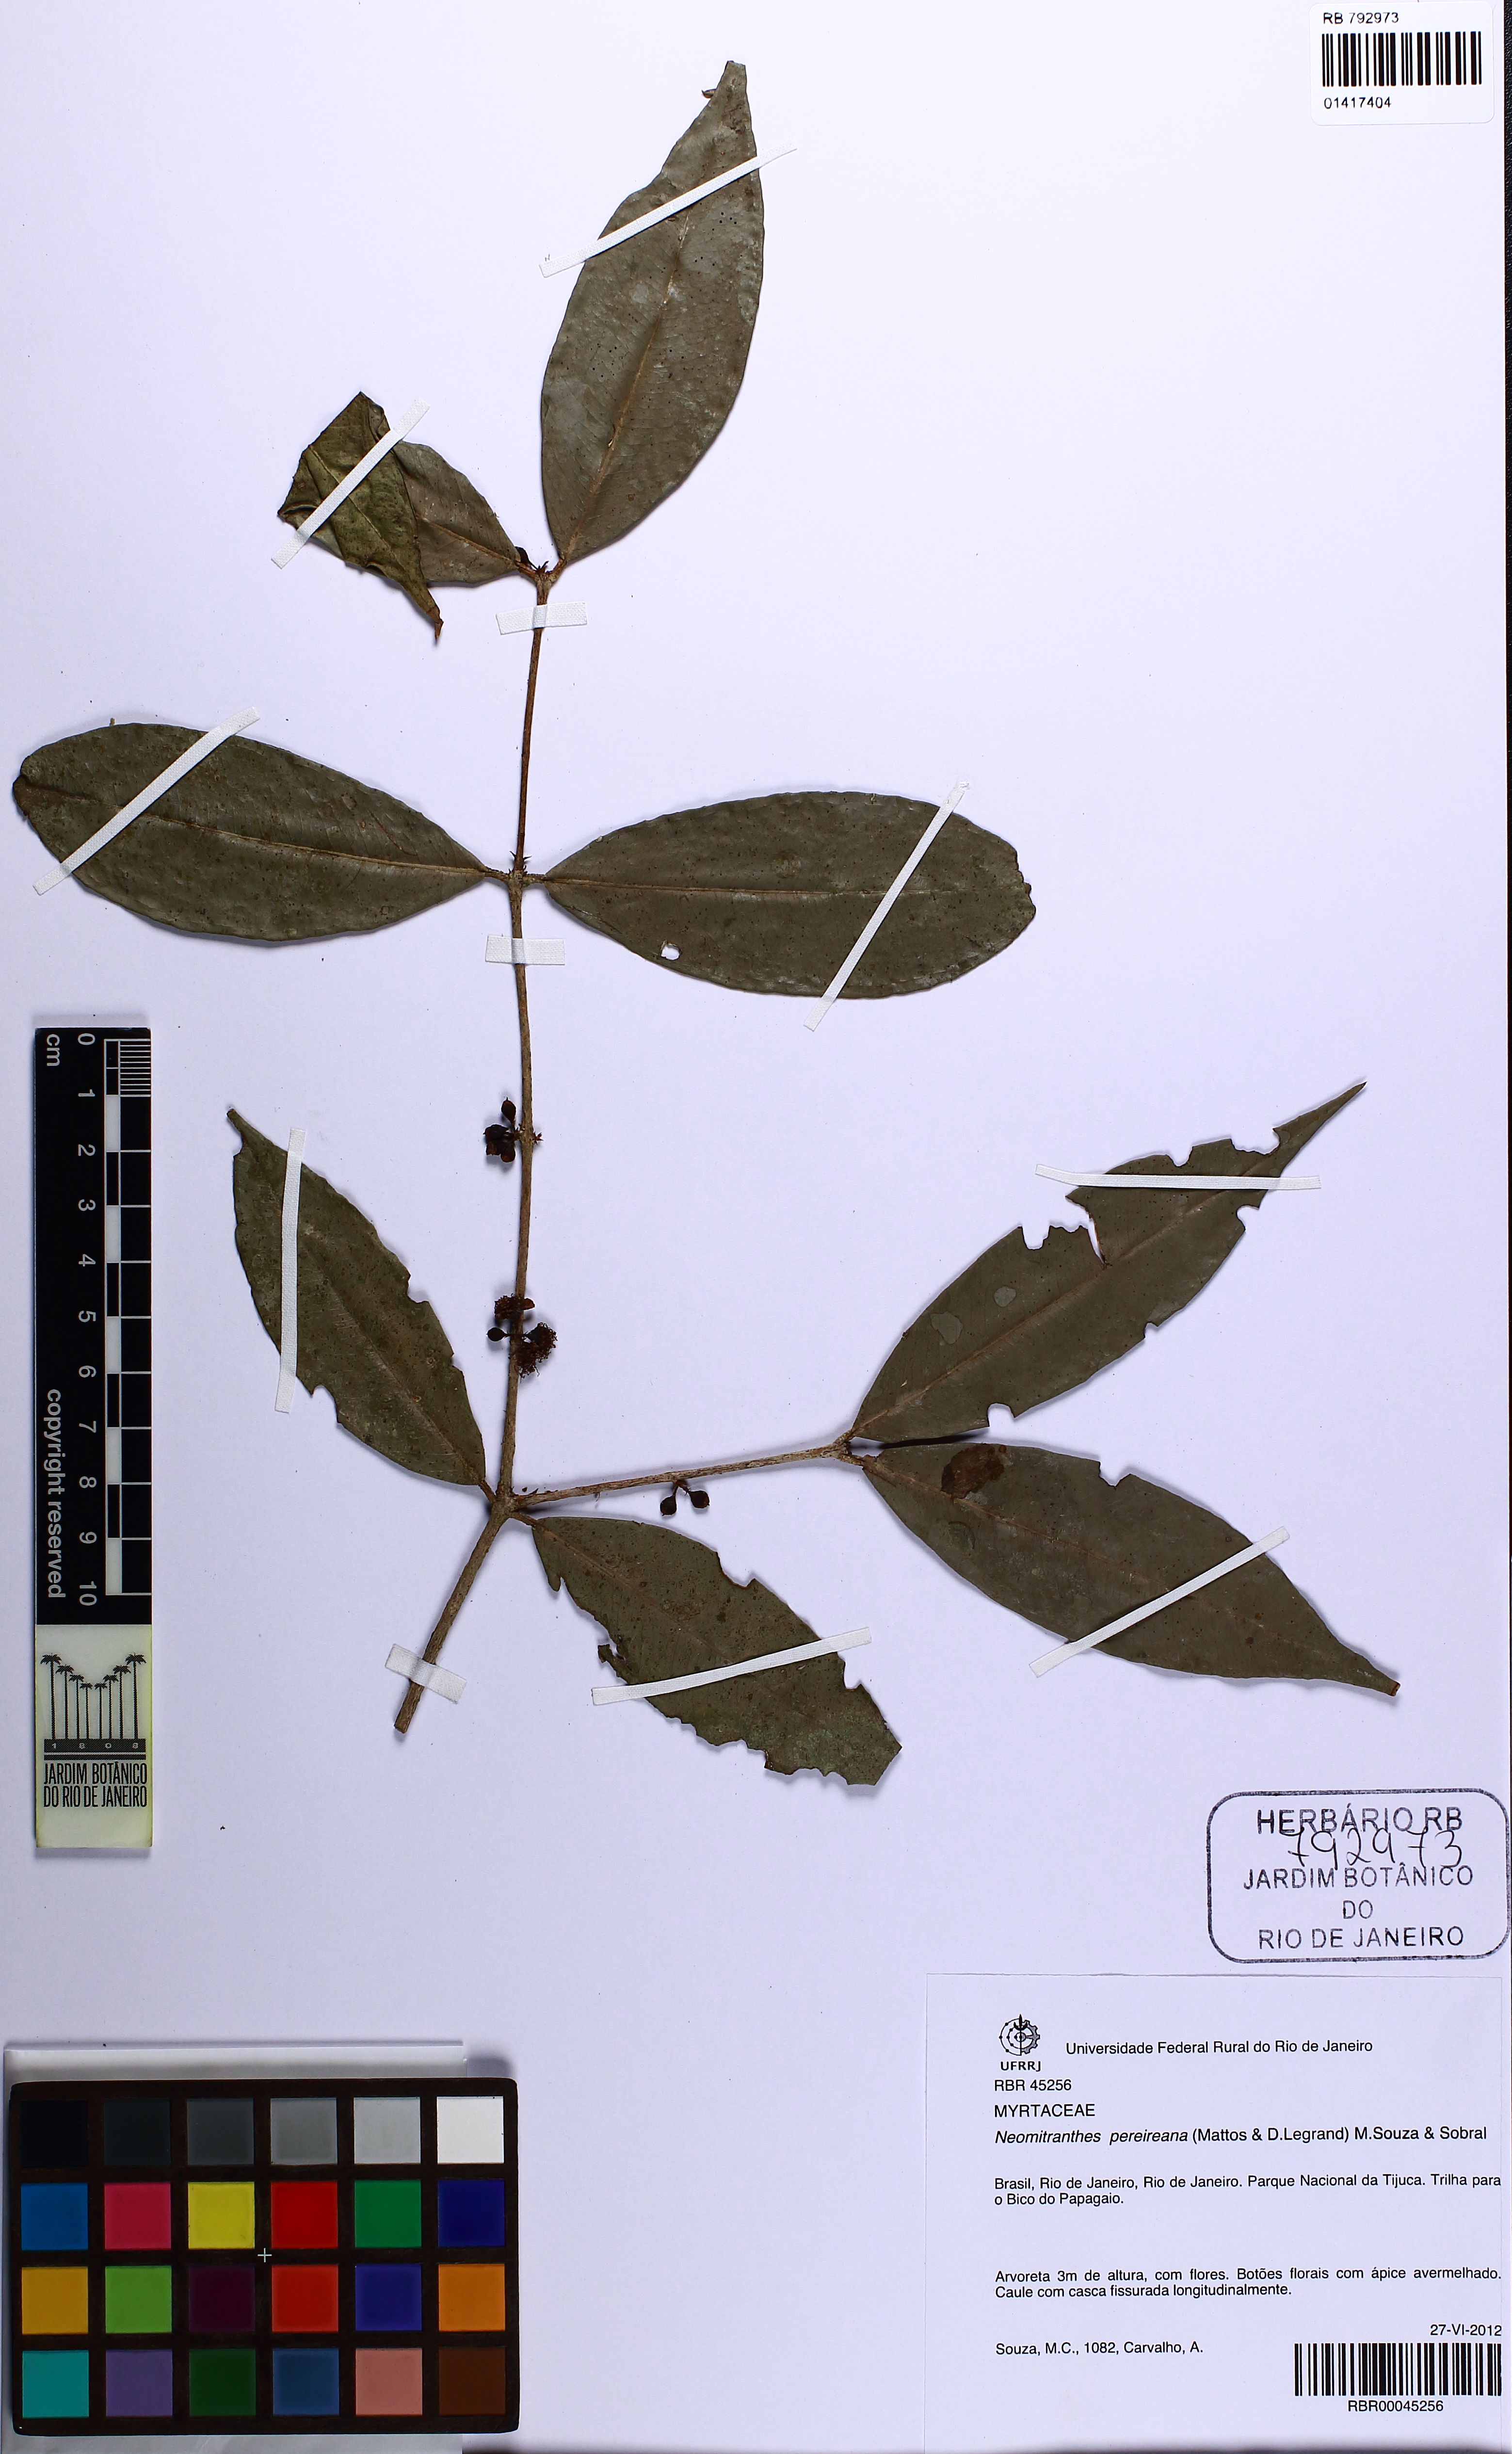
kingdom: Plantae
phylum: Tracheophyta
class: Magnoliopsida
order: Myrtales
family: Myrtaceae
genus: Neomitranthes
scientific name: Neomitranthes pereireana
